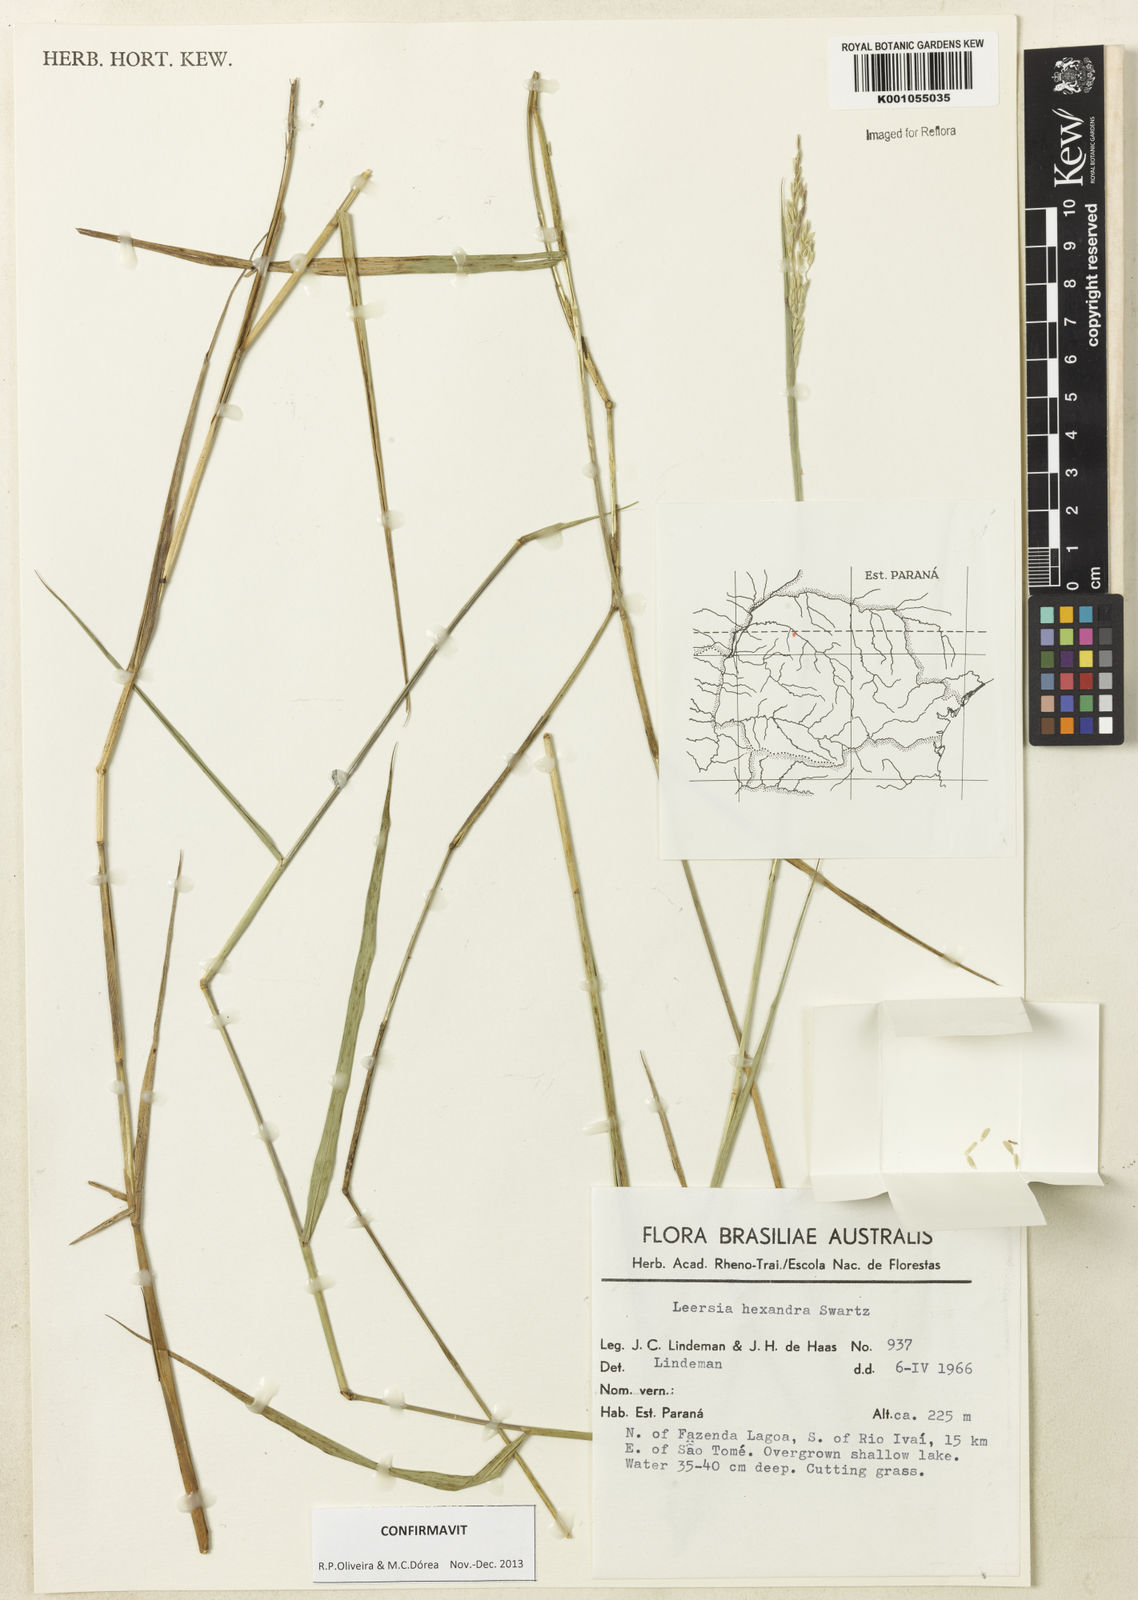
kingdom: Plantae
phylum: Tracheophyta
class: Liliopsida
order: Poales
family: Poaceae
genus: Leersia
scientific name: Leersia hexandra
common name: Southern cut grass
